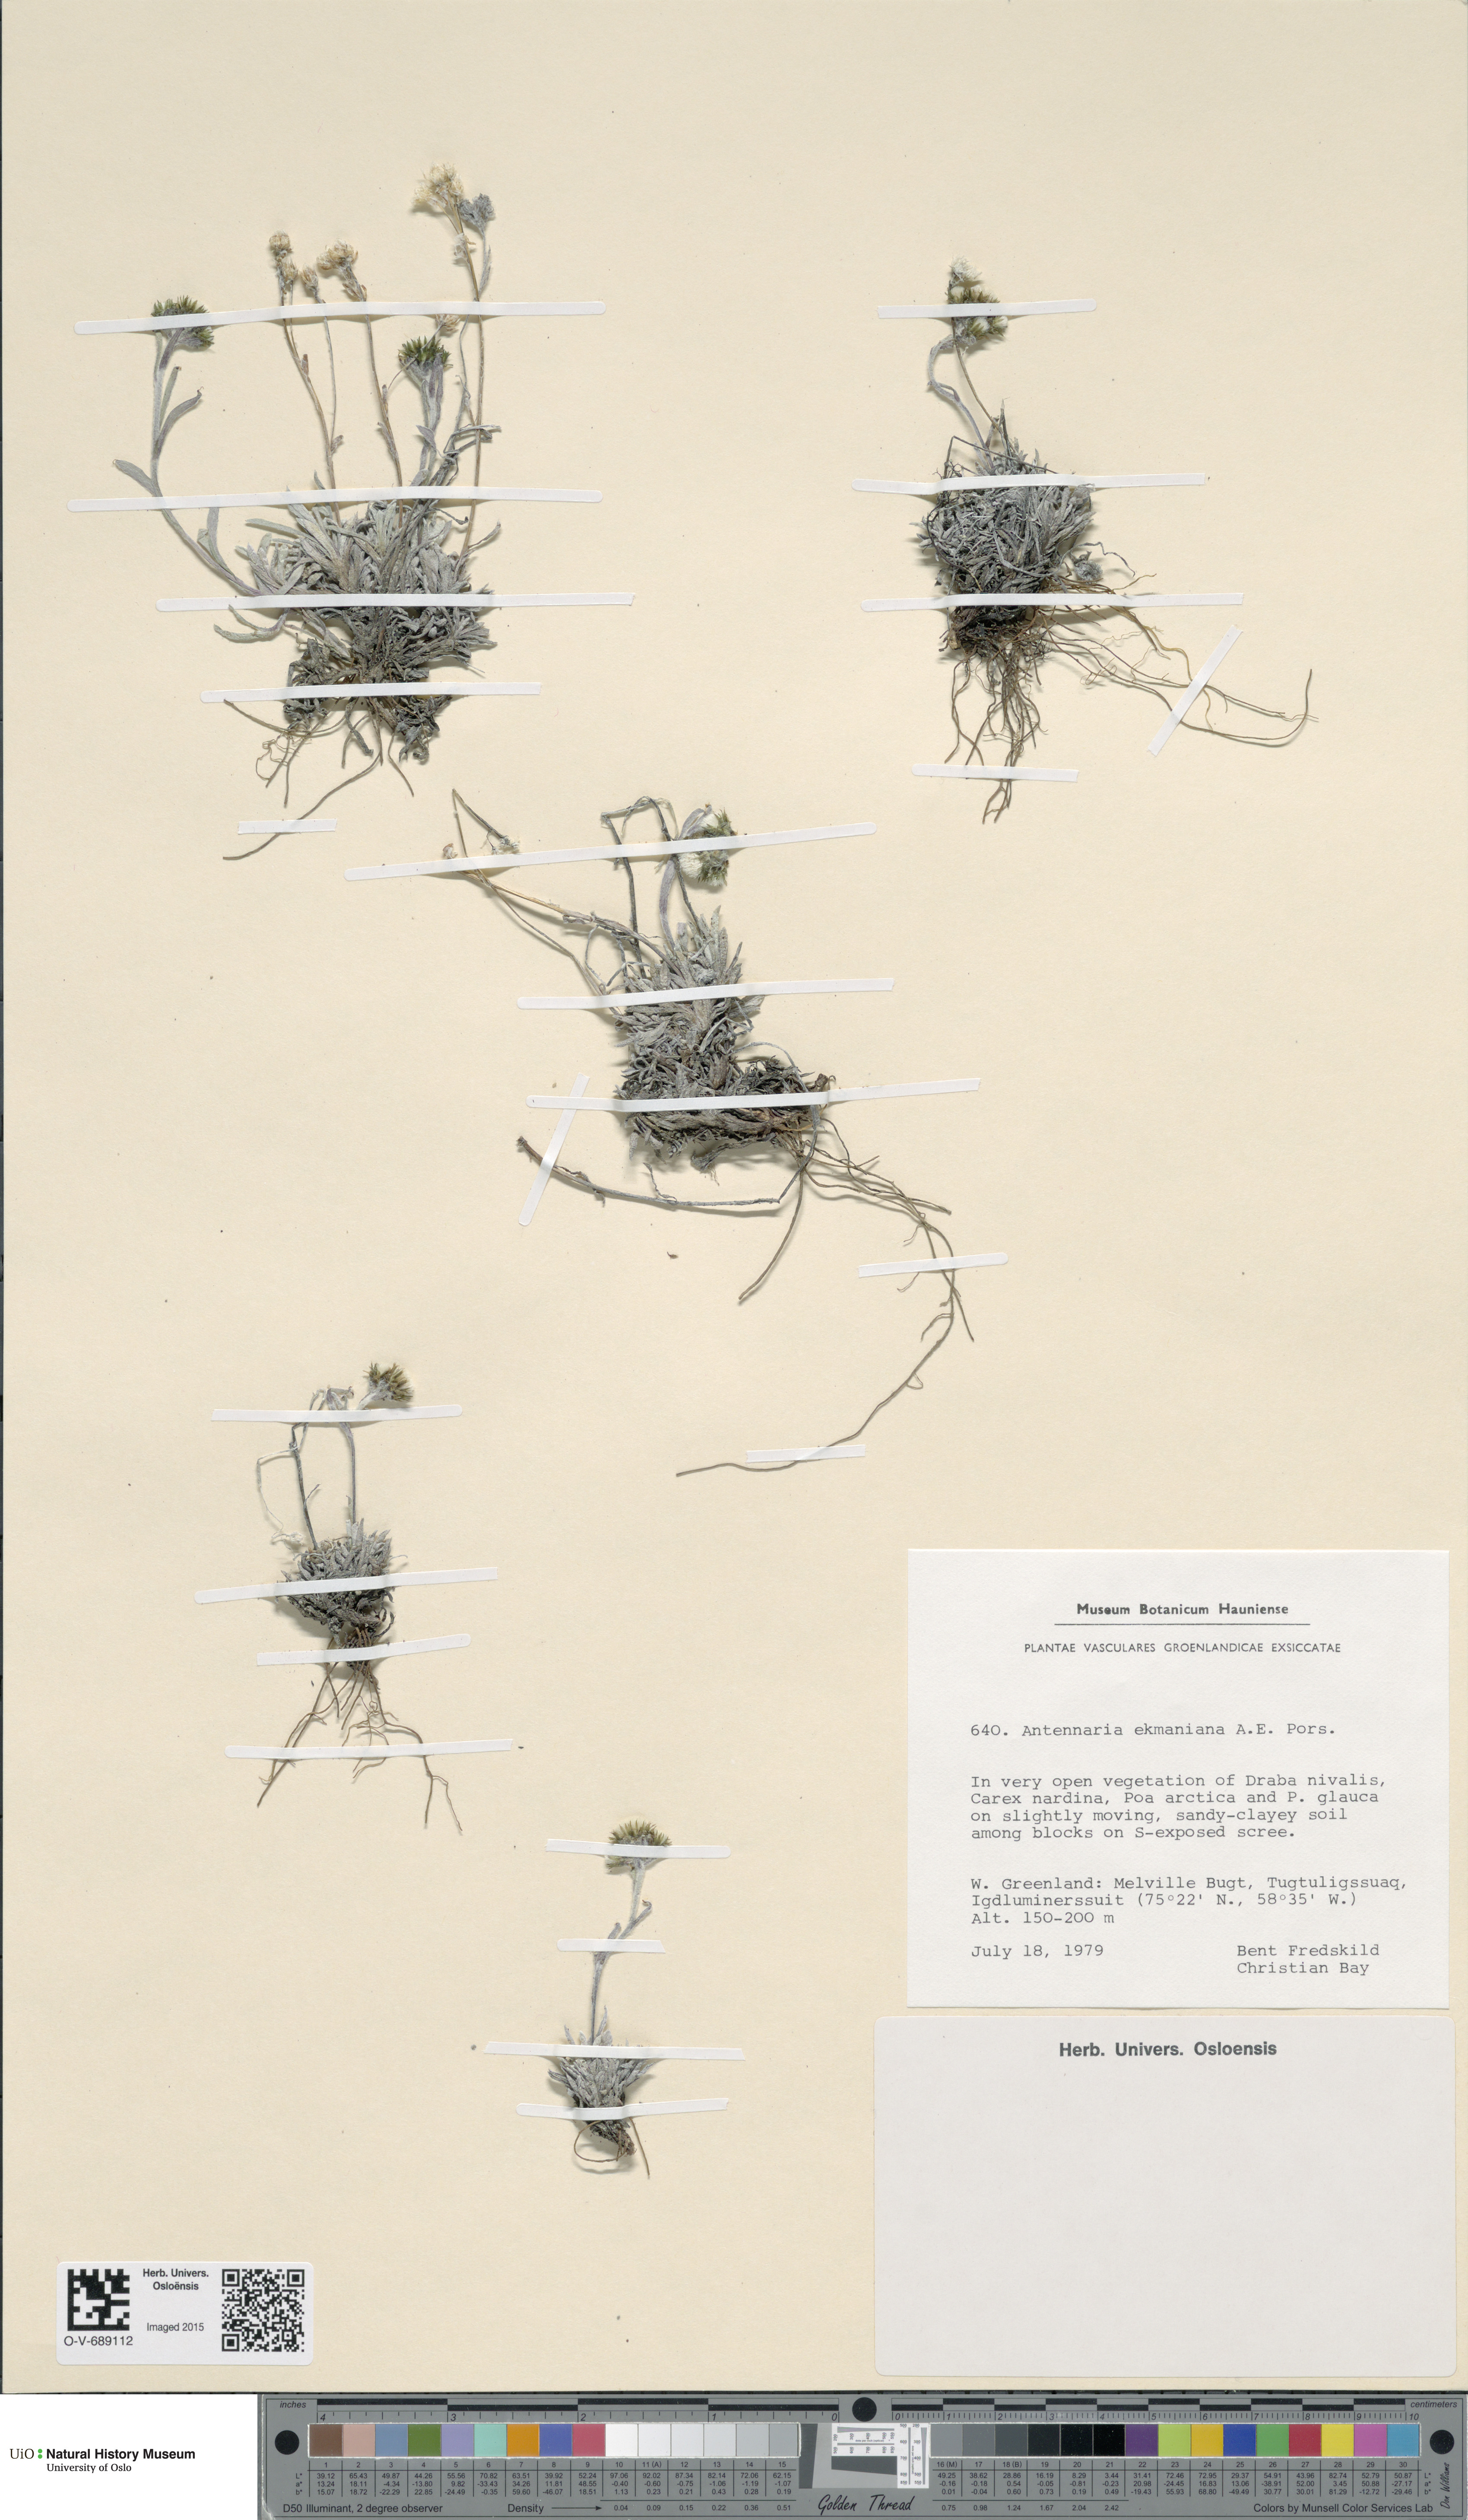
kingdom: Plantae
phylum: Tracheophyta
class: Magnoliopsida
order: Asterales
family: Asteraceae
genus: Antennaria
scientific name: Antennaria friesiana
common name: Fries' pussytoes
